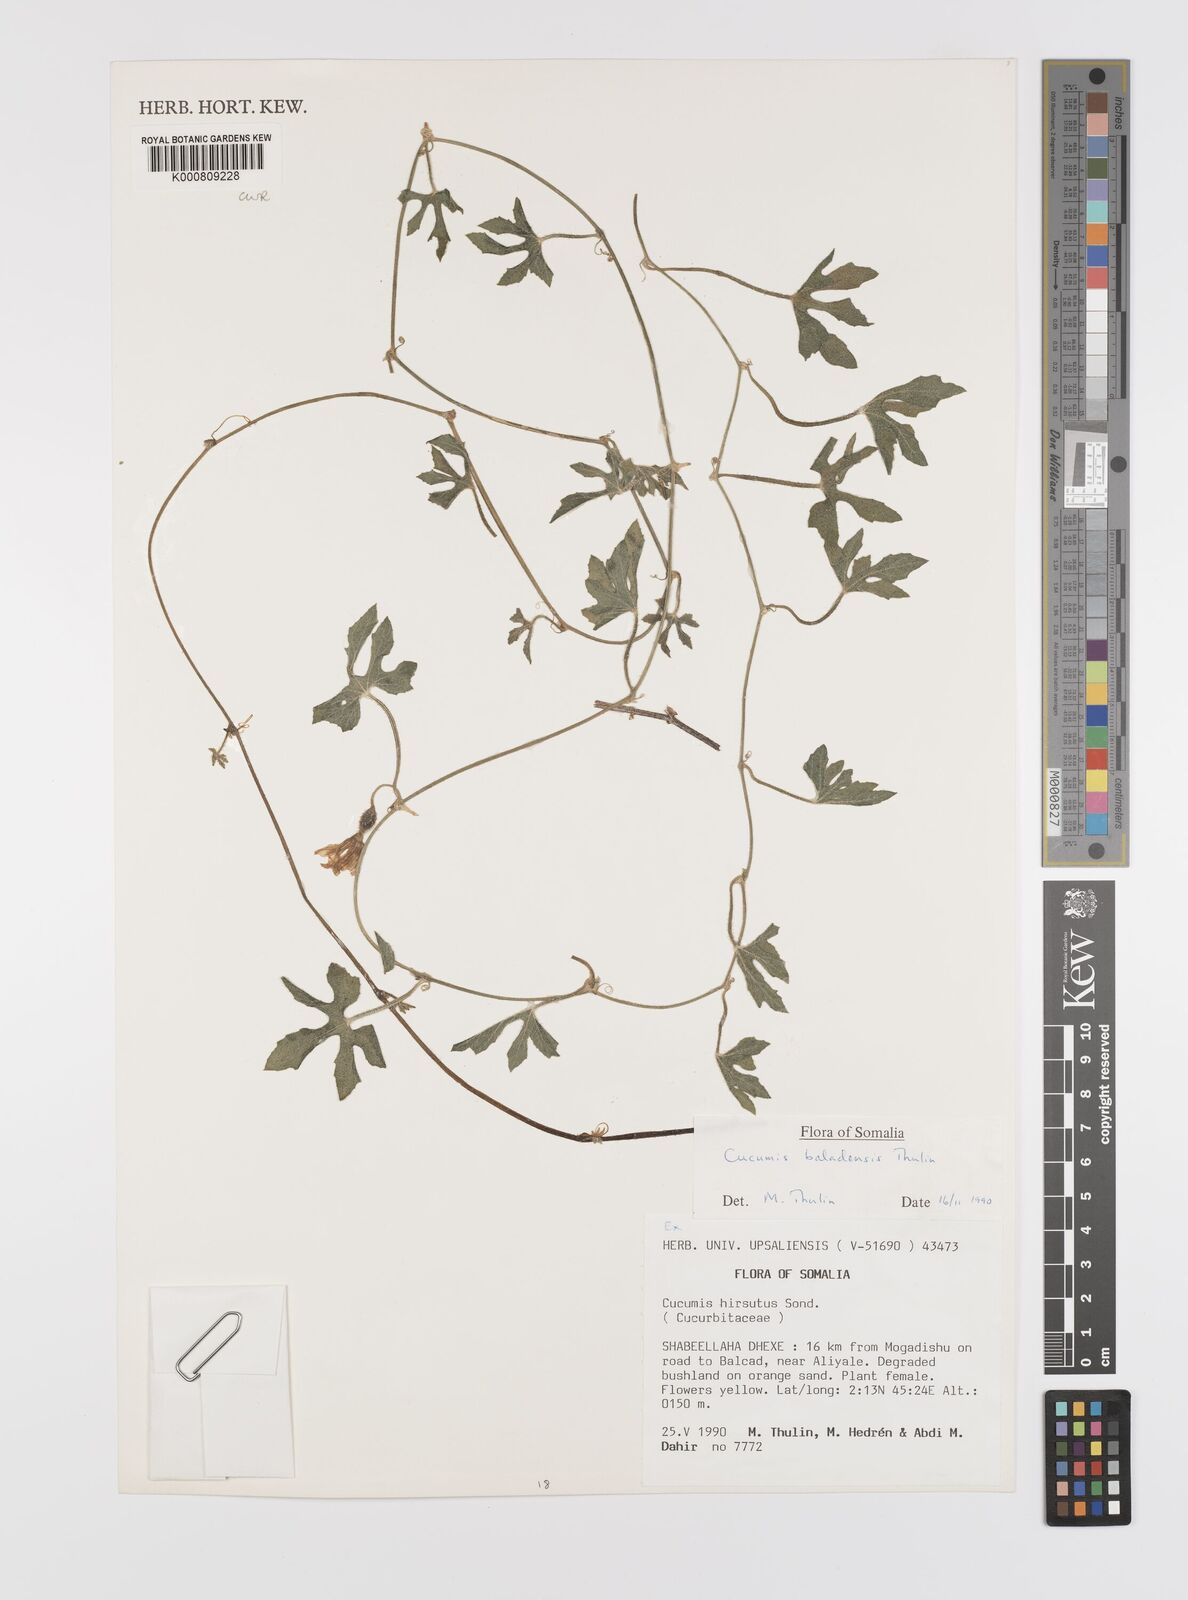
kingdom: Plantae
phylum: Tracheophyta
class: Magnoliopsida
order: Cucurbitales
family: Cucurbitaceae
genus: Cucumis
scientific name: Cucumis hirsutus
